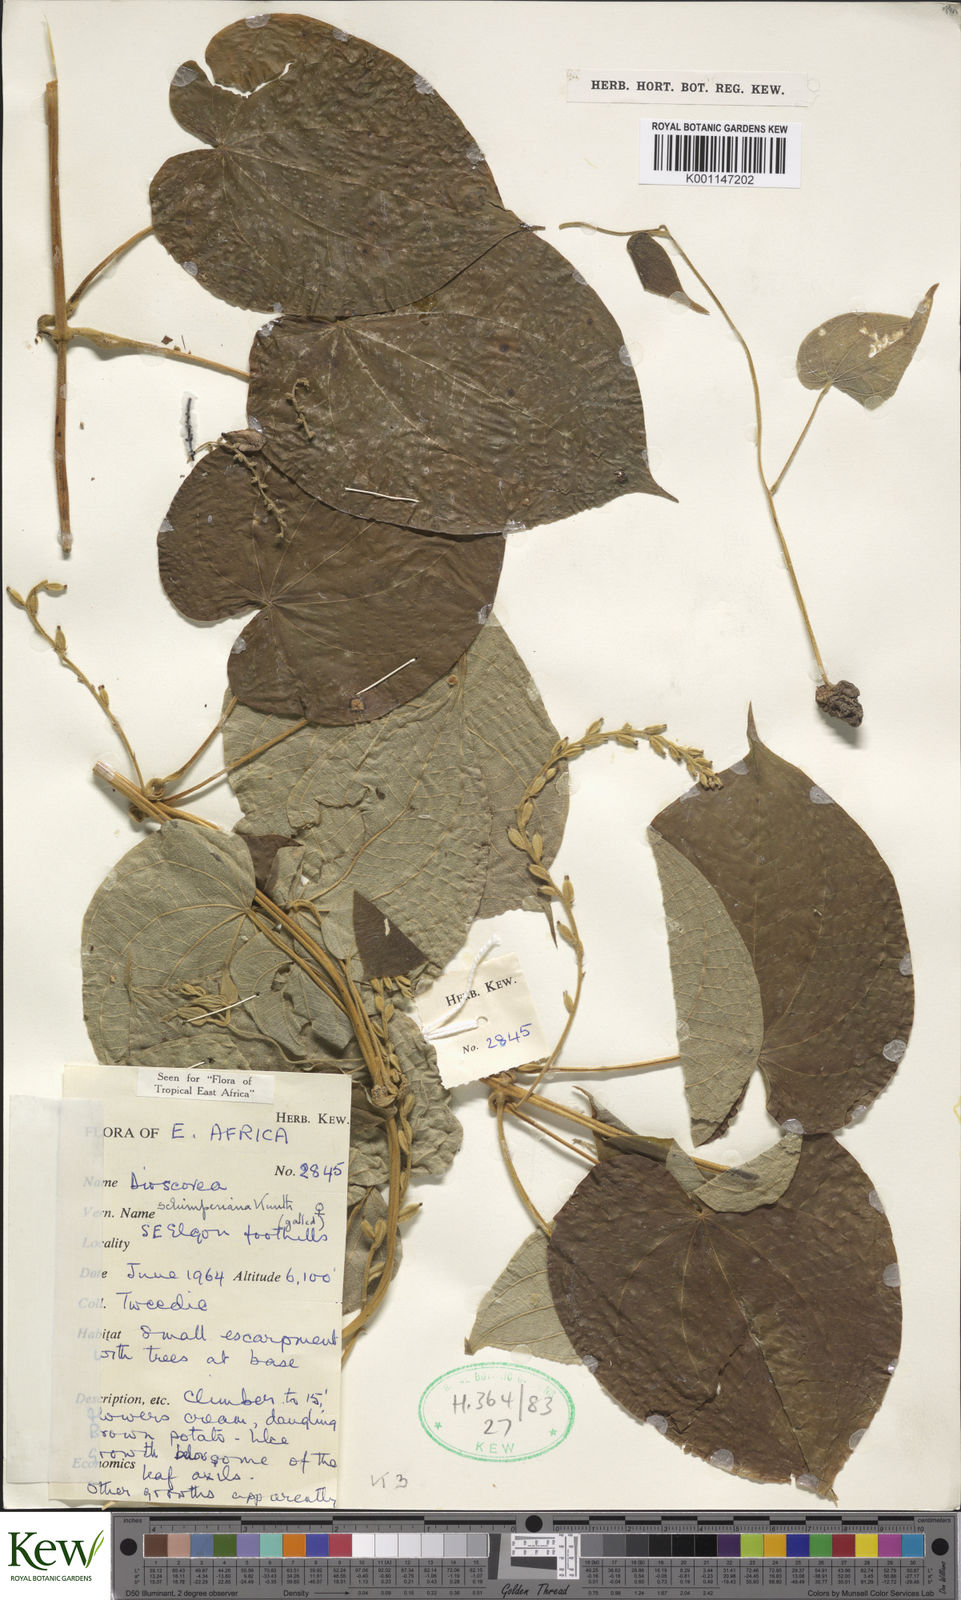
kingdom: Plantae
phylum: Tracheophyta
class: Liliopsida
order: Dioscoreales
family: Dioscoreaceae
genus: Dioscorea
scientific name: Dioscorea schimperiana
